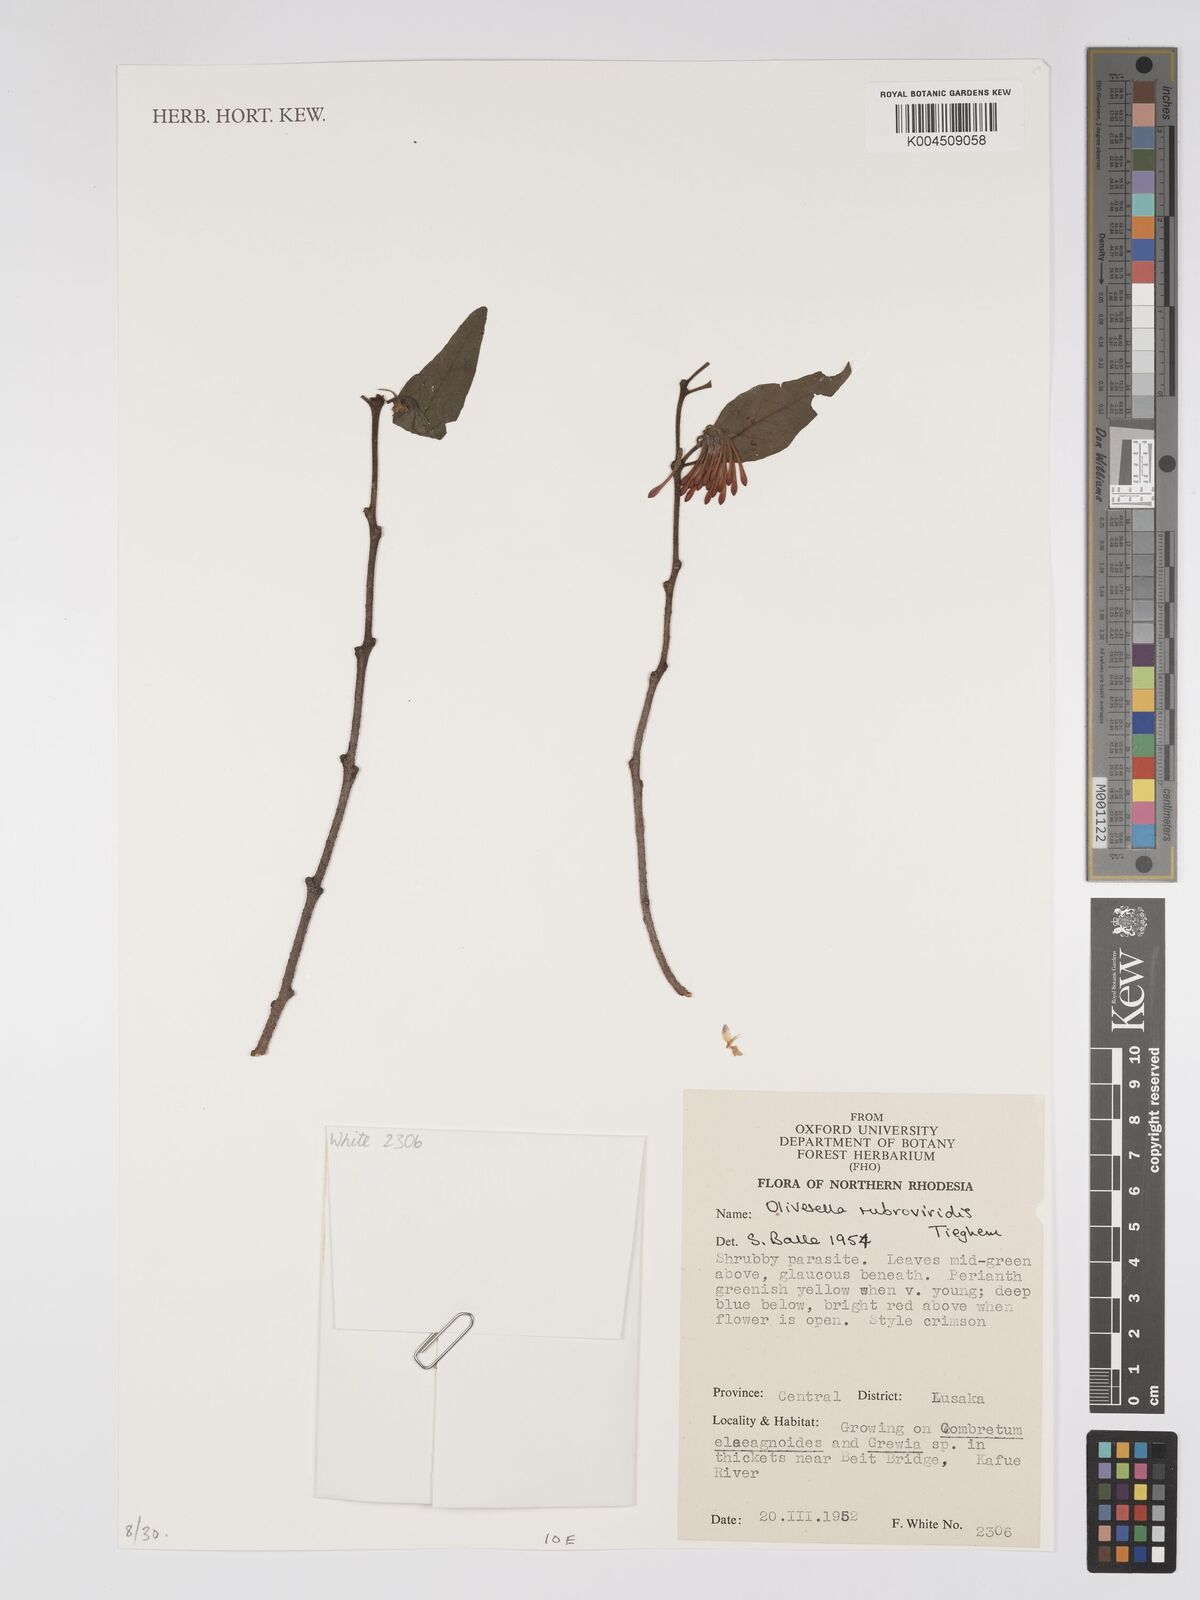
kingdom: Plantae
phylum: Tracheophyta
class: Magnoliopsida
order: Santalales
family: Loranthaceae
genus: Oliverella
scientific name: Oliverella rubroviridis
